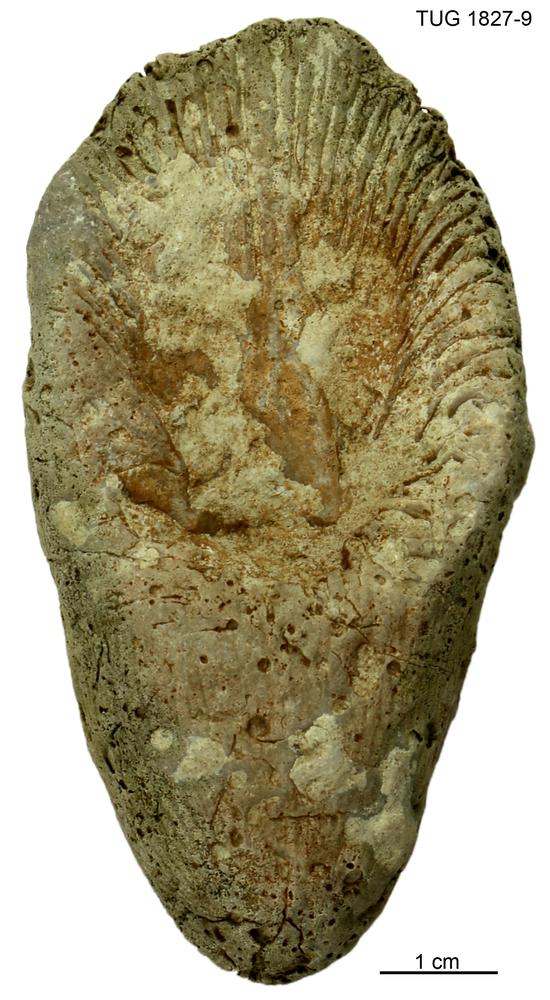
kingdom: Animalia
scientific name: Animalia
